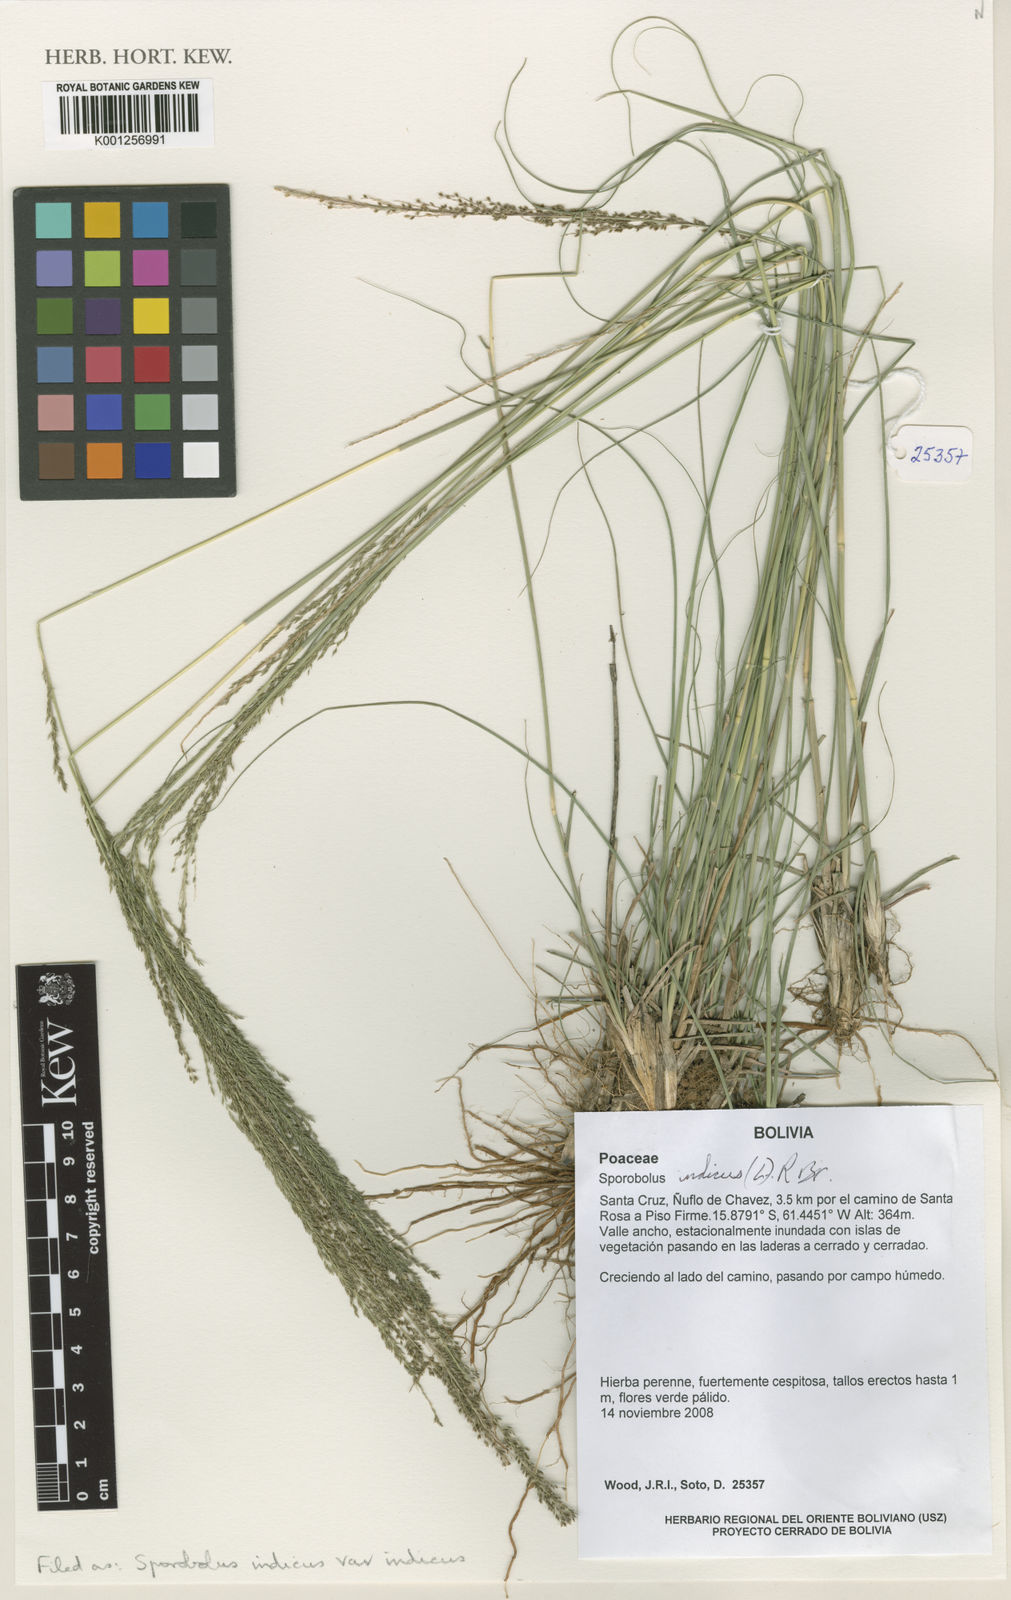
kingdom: Plantae
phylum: Tracheophyta
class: Liliopsida
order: Poales
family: Poaceae
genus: Sporobolus
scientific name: Sporobolus indicus
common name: Smut grass
